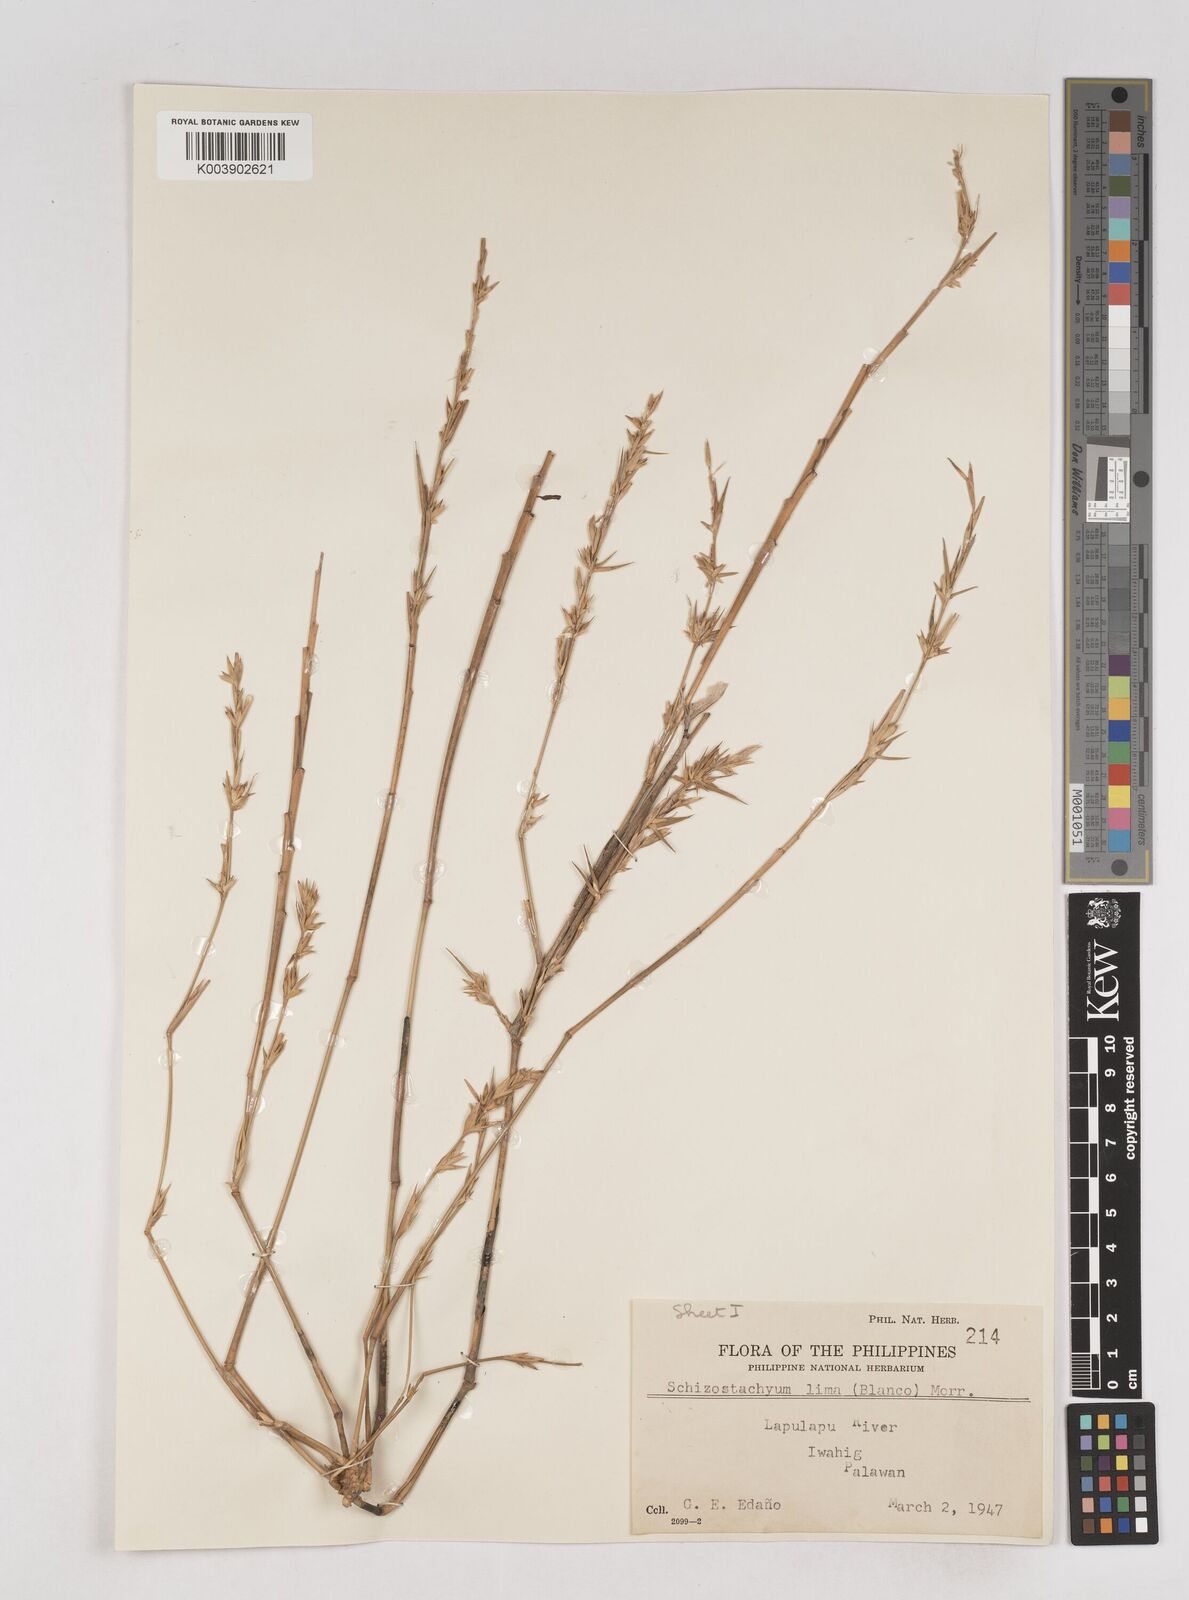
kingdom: Plantae
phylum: Tracheophyta
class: Liliopsida
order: Poales
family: Poaceae
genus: Schizostachyum
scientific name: Schizostachyum lima
